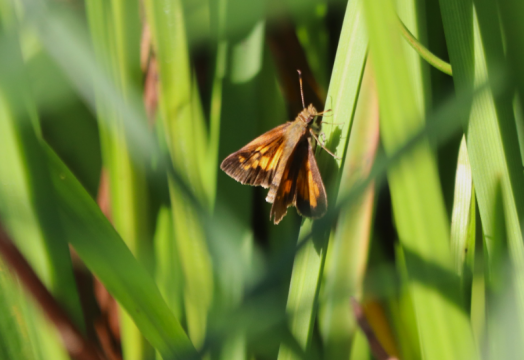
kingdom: Animalia
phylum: Arthropoda
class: Insecta
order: Lepidoptera
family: Hesperiidae
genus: Poanes
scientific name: Poanes viator
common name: Broad-winged Skipper
